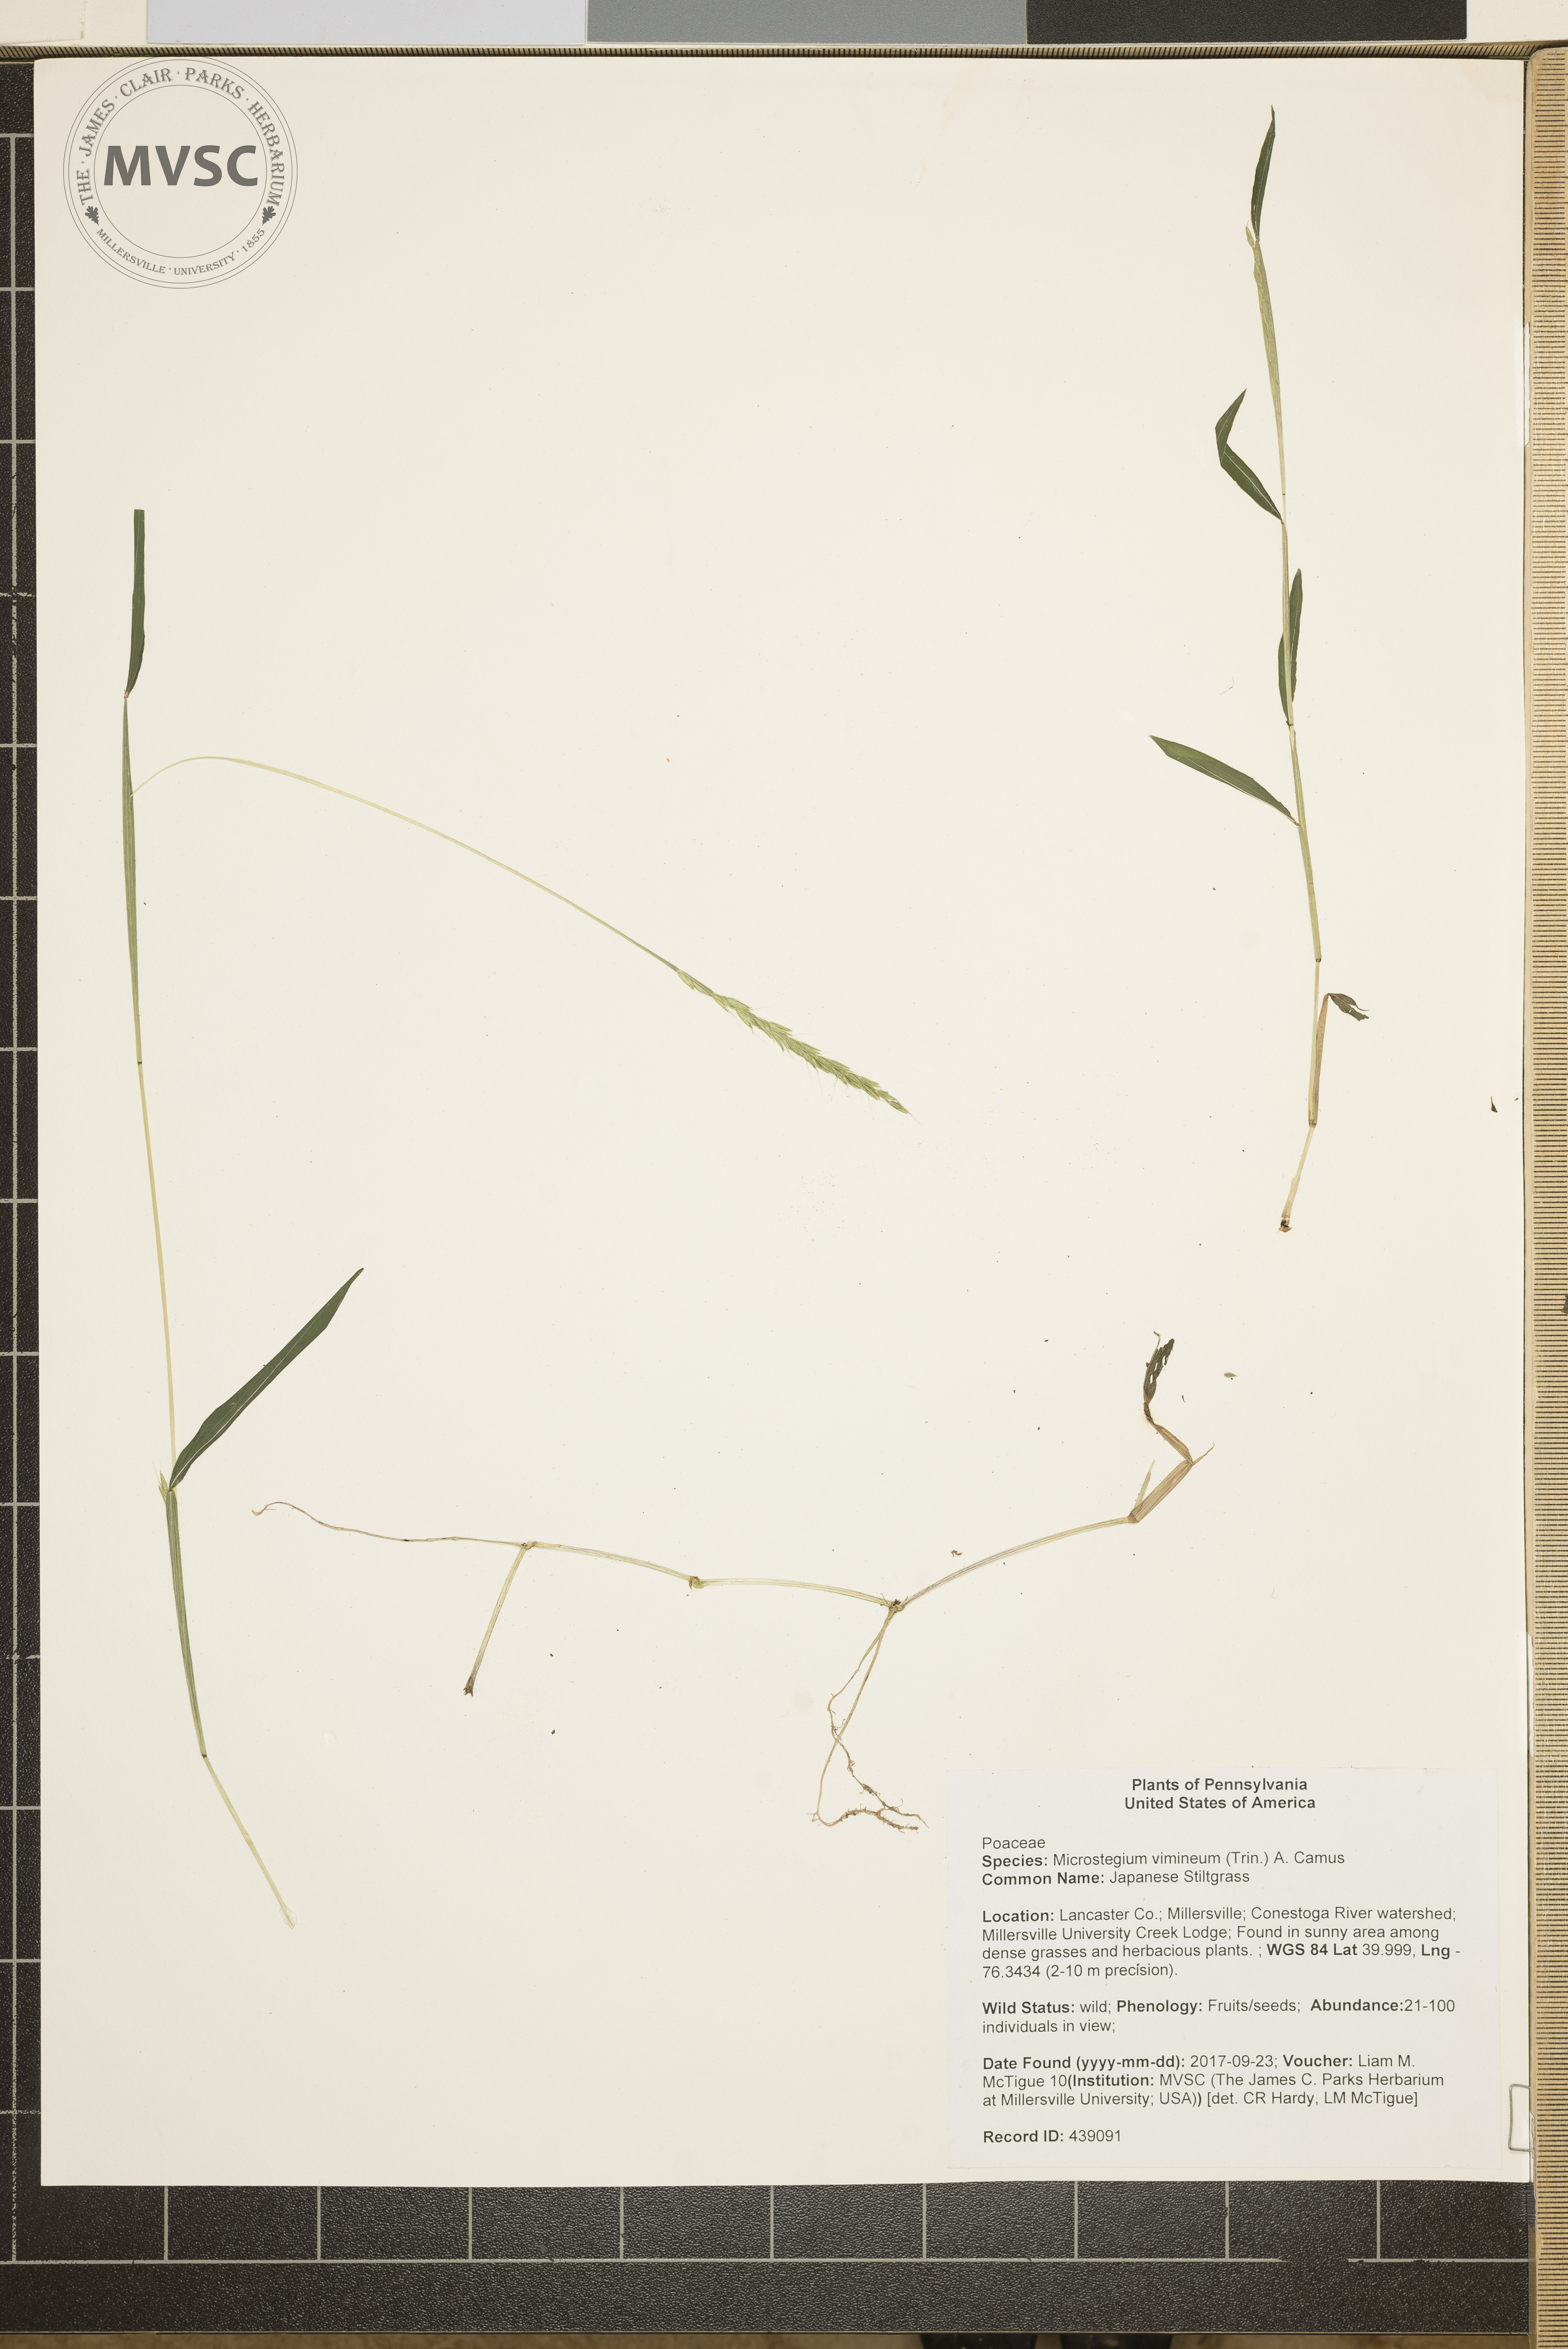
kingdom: Plantae
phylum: Tracheophyta
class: Liliopsida
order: Poales
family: Poaceae
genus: Microstegium
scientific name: Microstegium vimineum
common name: Japanese Stiltgrass
